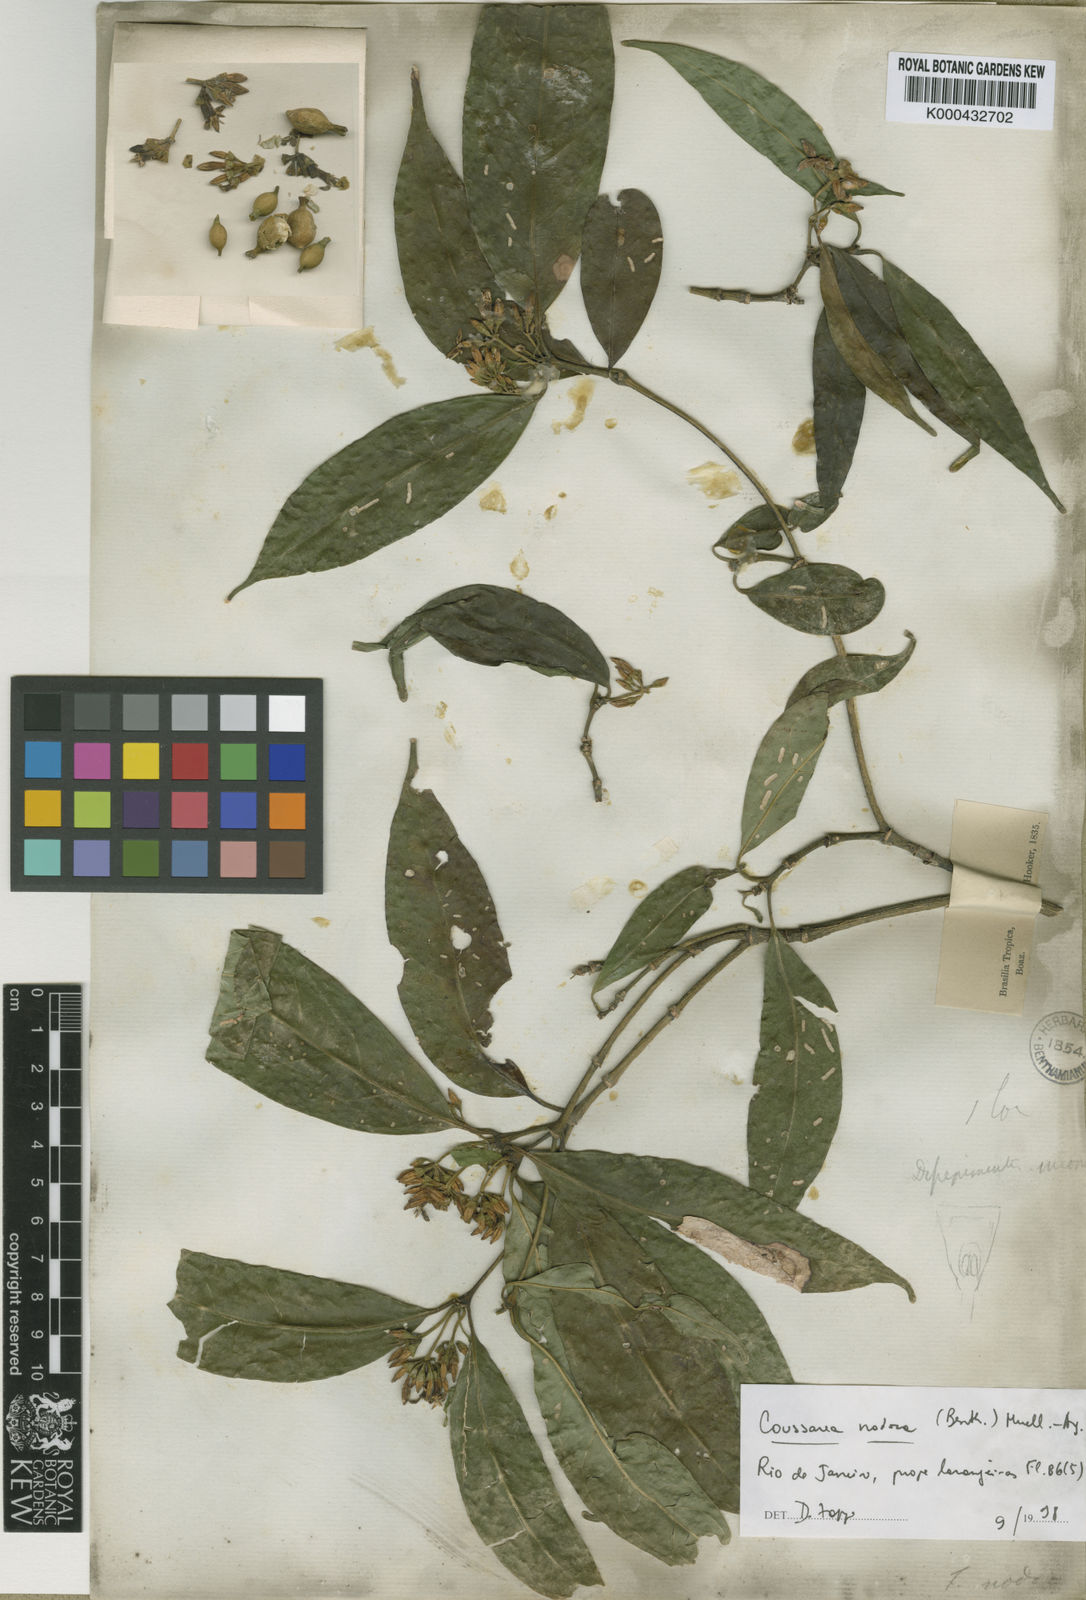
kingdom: Plantae
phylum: Tracheophyta
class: Magnoliopsida
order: Gentianales
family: Rubiaceae
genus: Coussarea
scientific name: Coussarea
